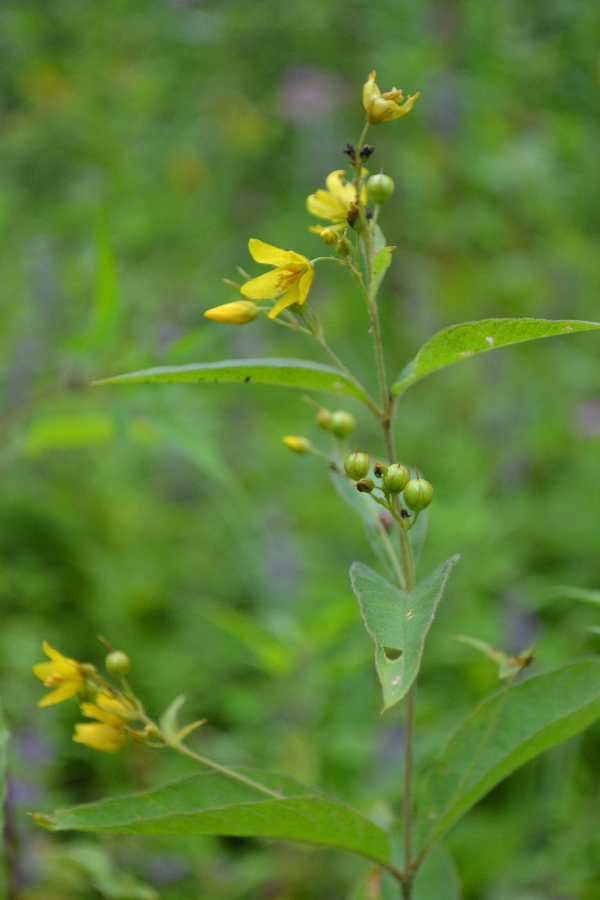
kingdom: Plantae
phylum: Tracheophyta
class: Magnoliopsida
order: Ericales
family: Primulaceae
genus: Lysimachia
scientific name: Lysimachia vulgaris
